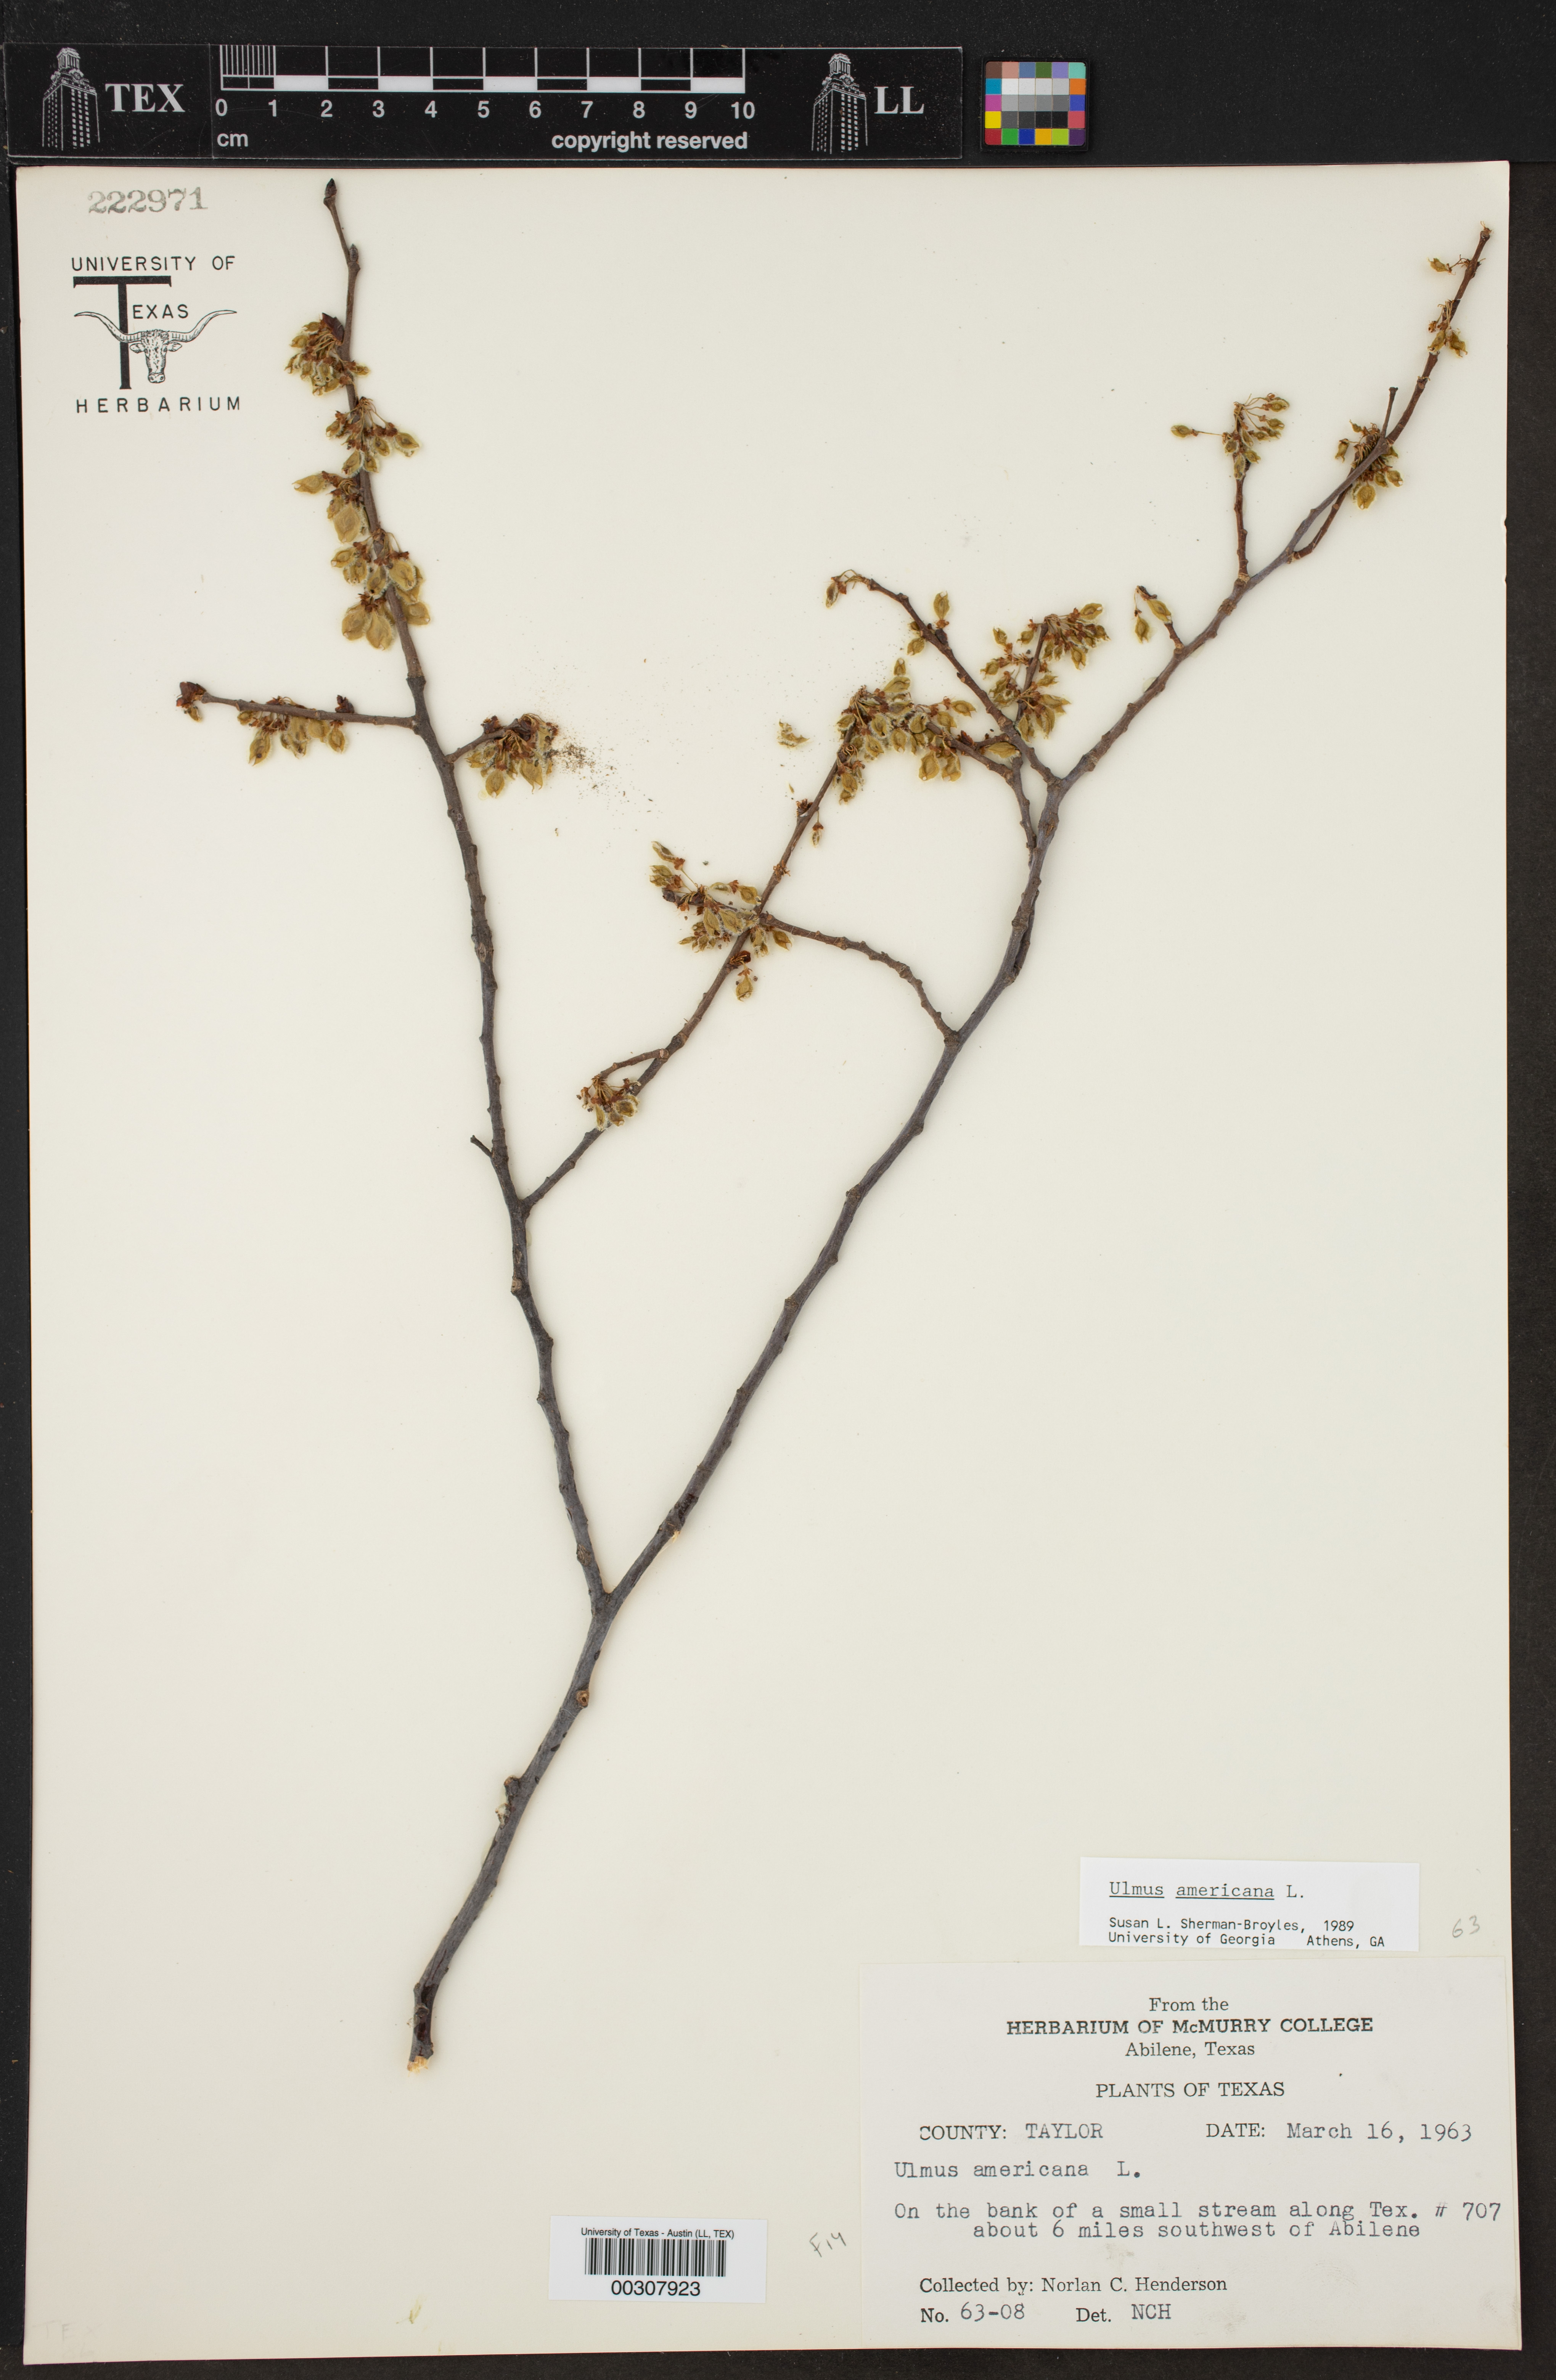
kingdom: Plantae
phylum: Tracheophyta
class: Magnoliopsida
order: Rosales
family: Ulmaceae
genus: Ulmus
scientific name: Ulmus americana
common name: American elm
